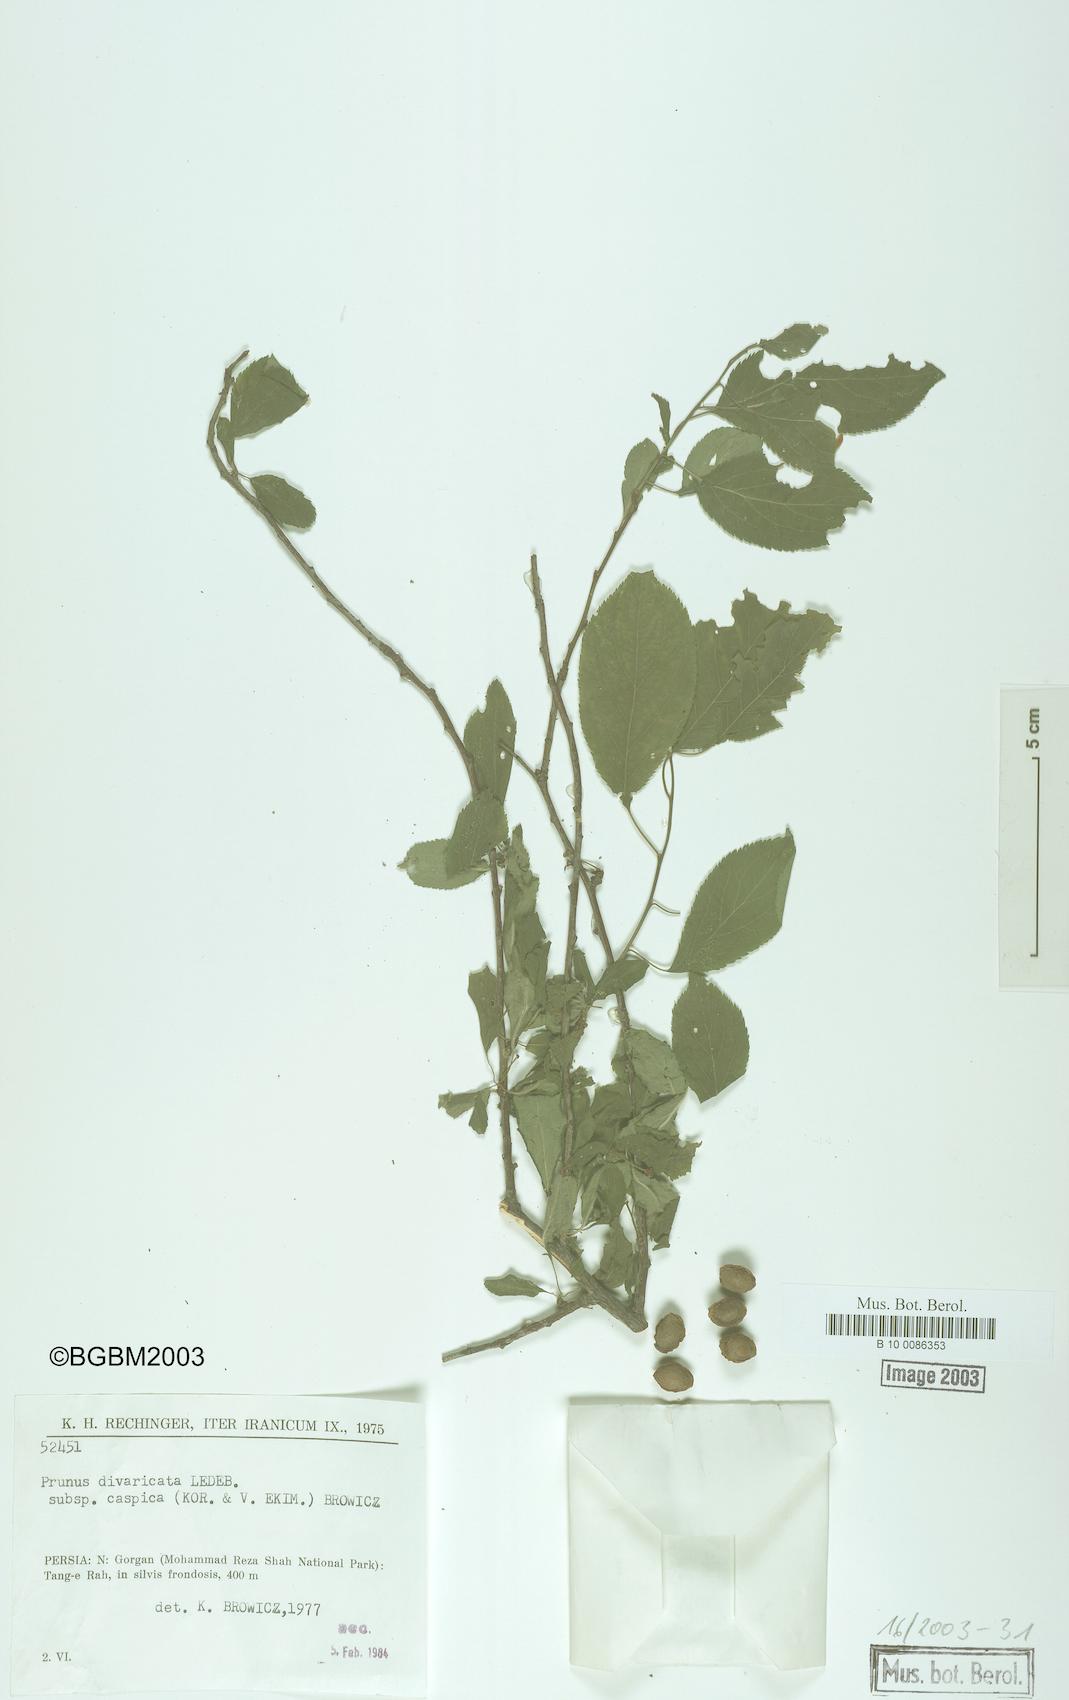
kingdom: Plantae
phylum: Tracheophyta
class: Magnoliopsida
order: Rosales
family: Rosaceae
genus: Prunus
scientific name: Prunus cerasifera
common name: Cherry plum
